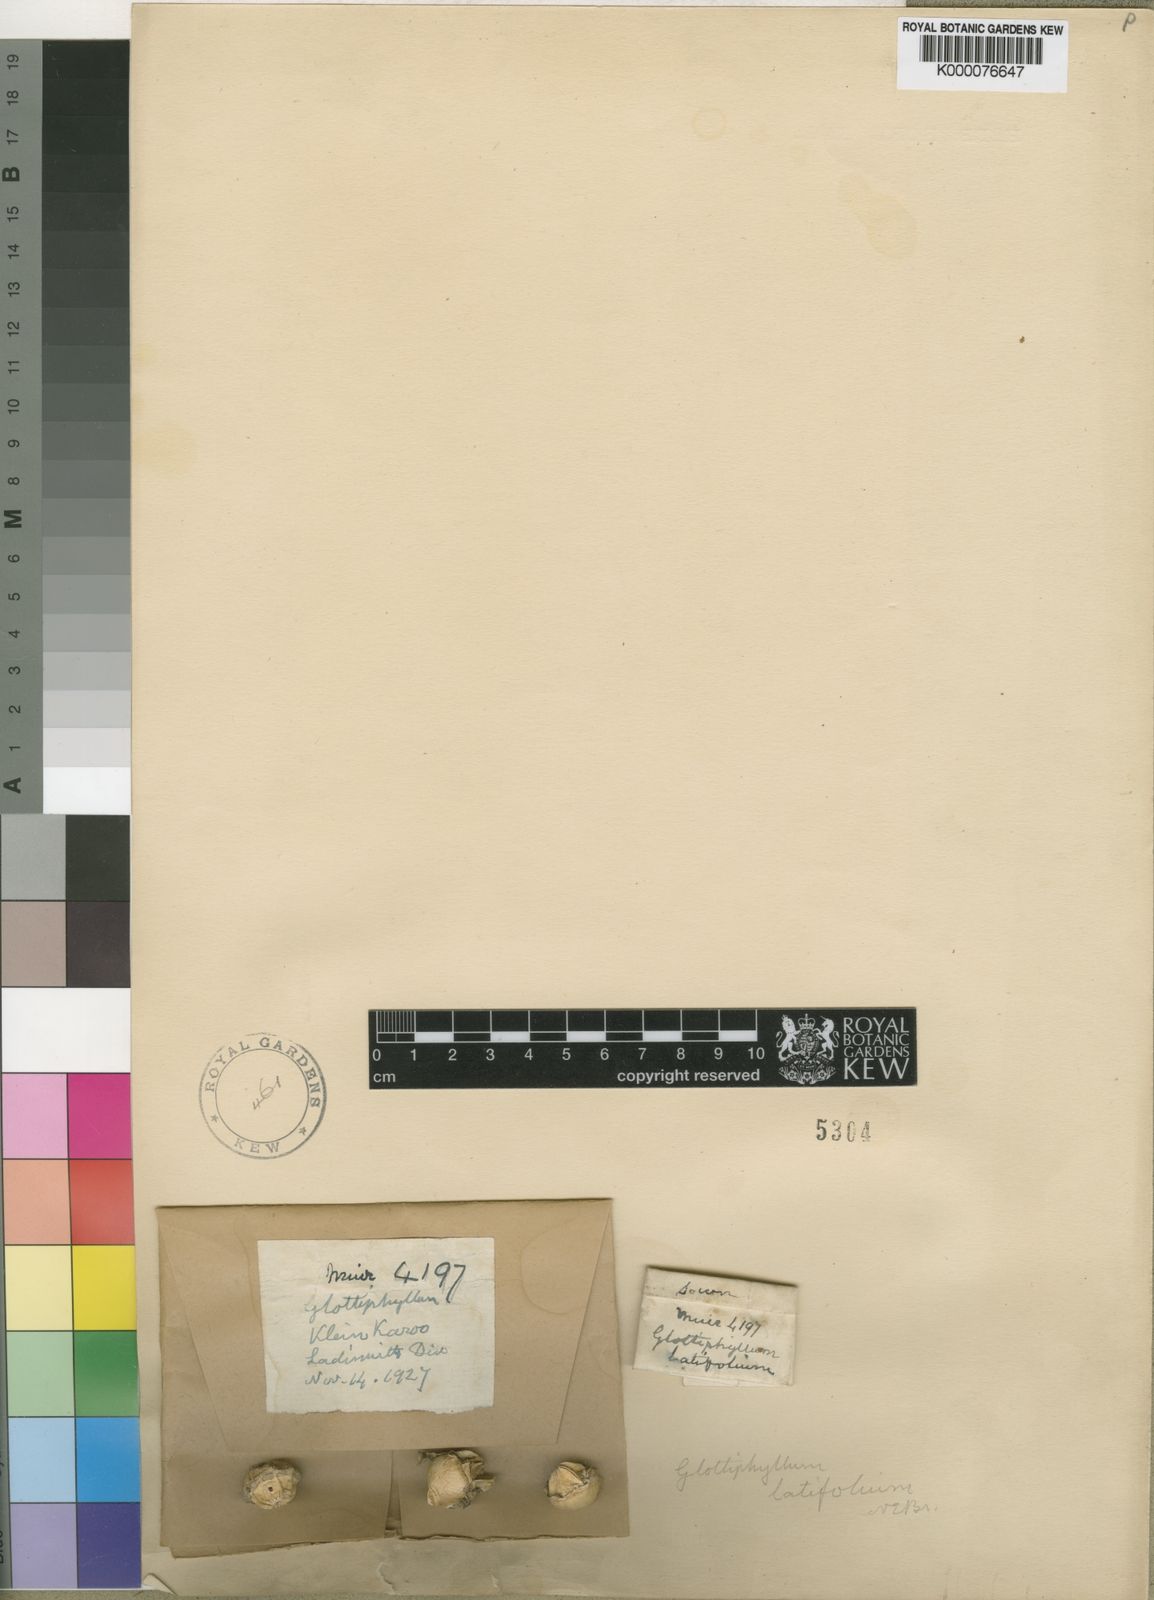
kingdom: Plantae
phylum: Tracheophyta
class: Magnoliopsida
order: Caryophyllales
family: Aizoaceae
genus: Glottiphyllum
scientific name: Glottiphyllum linguiforme
